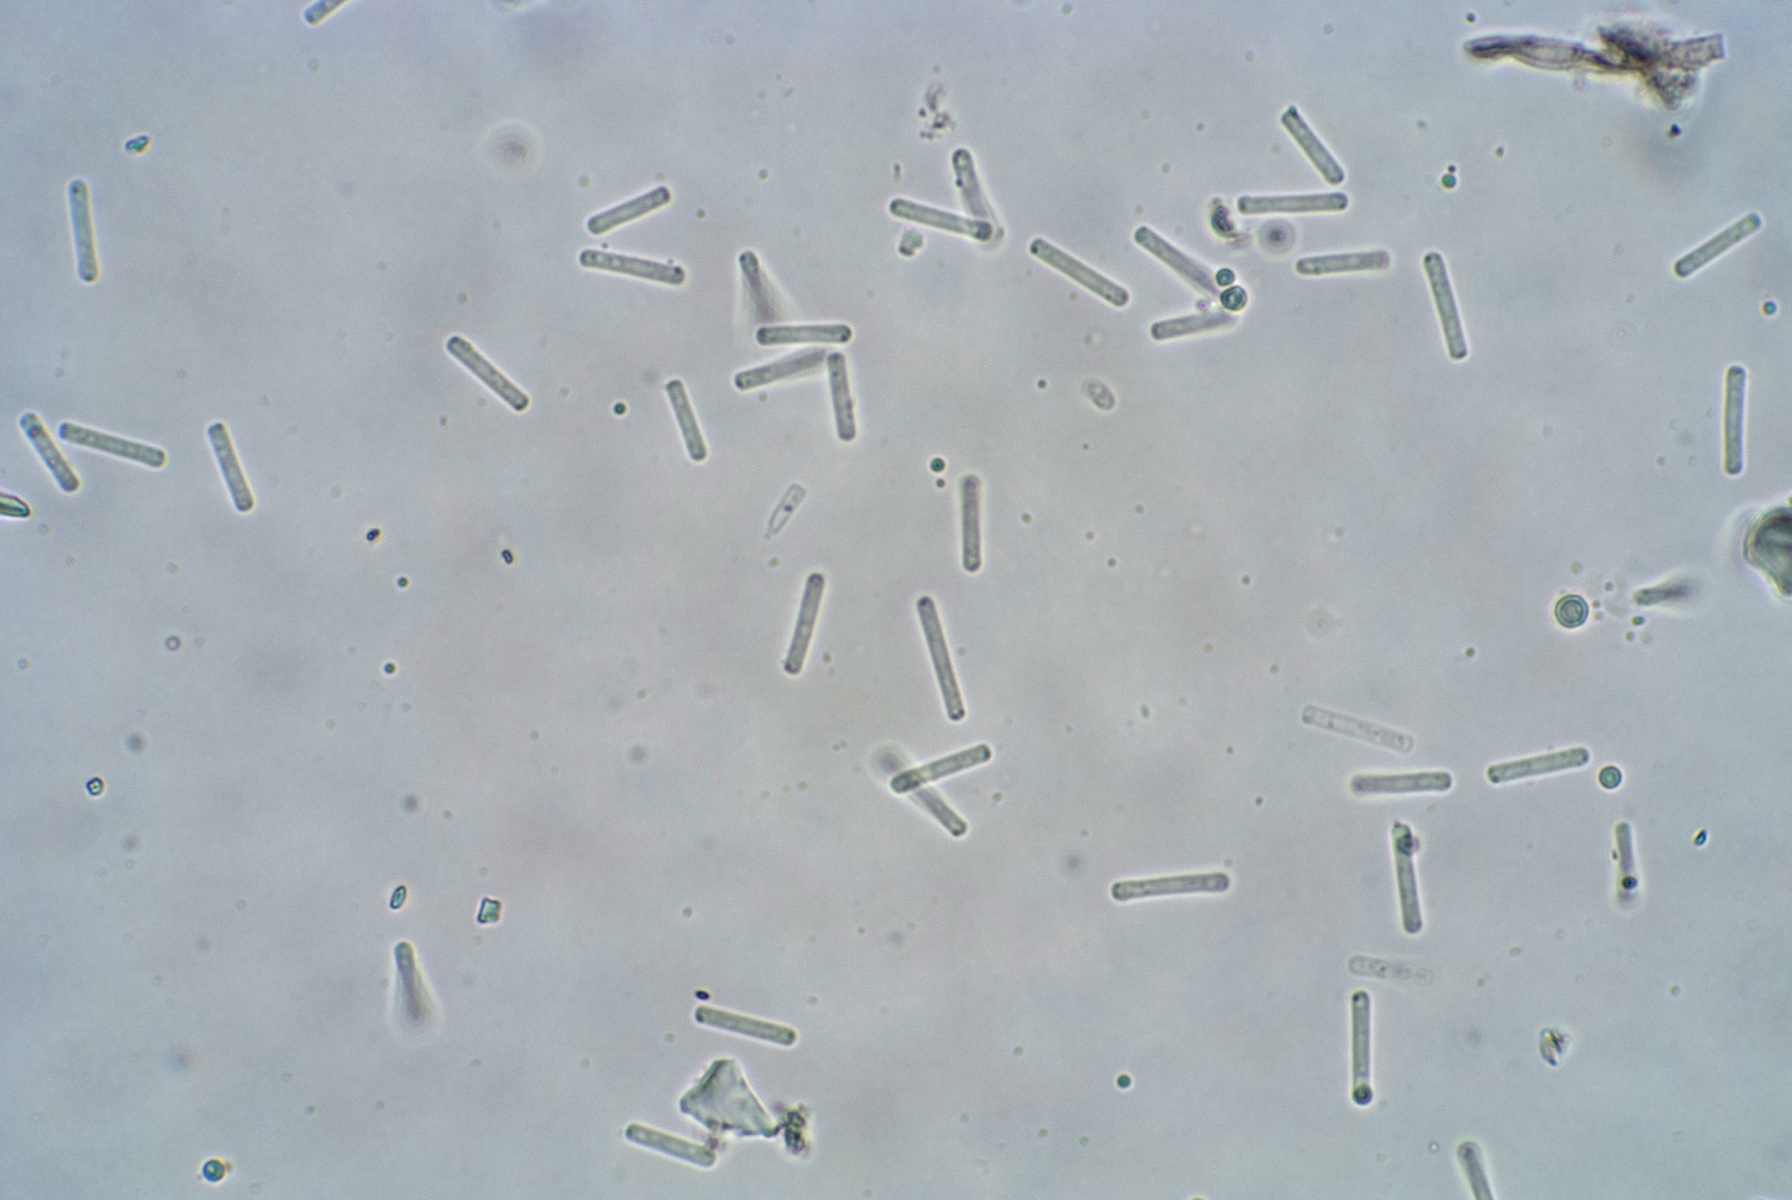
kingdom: Fungi
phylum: Ascomycota
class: Leotiomycetes
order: Helotiales
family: Pezizellaceae
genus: Chalara
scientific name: Chalara cylindrosperma
